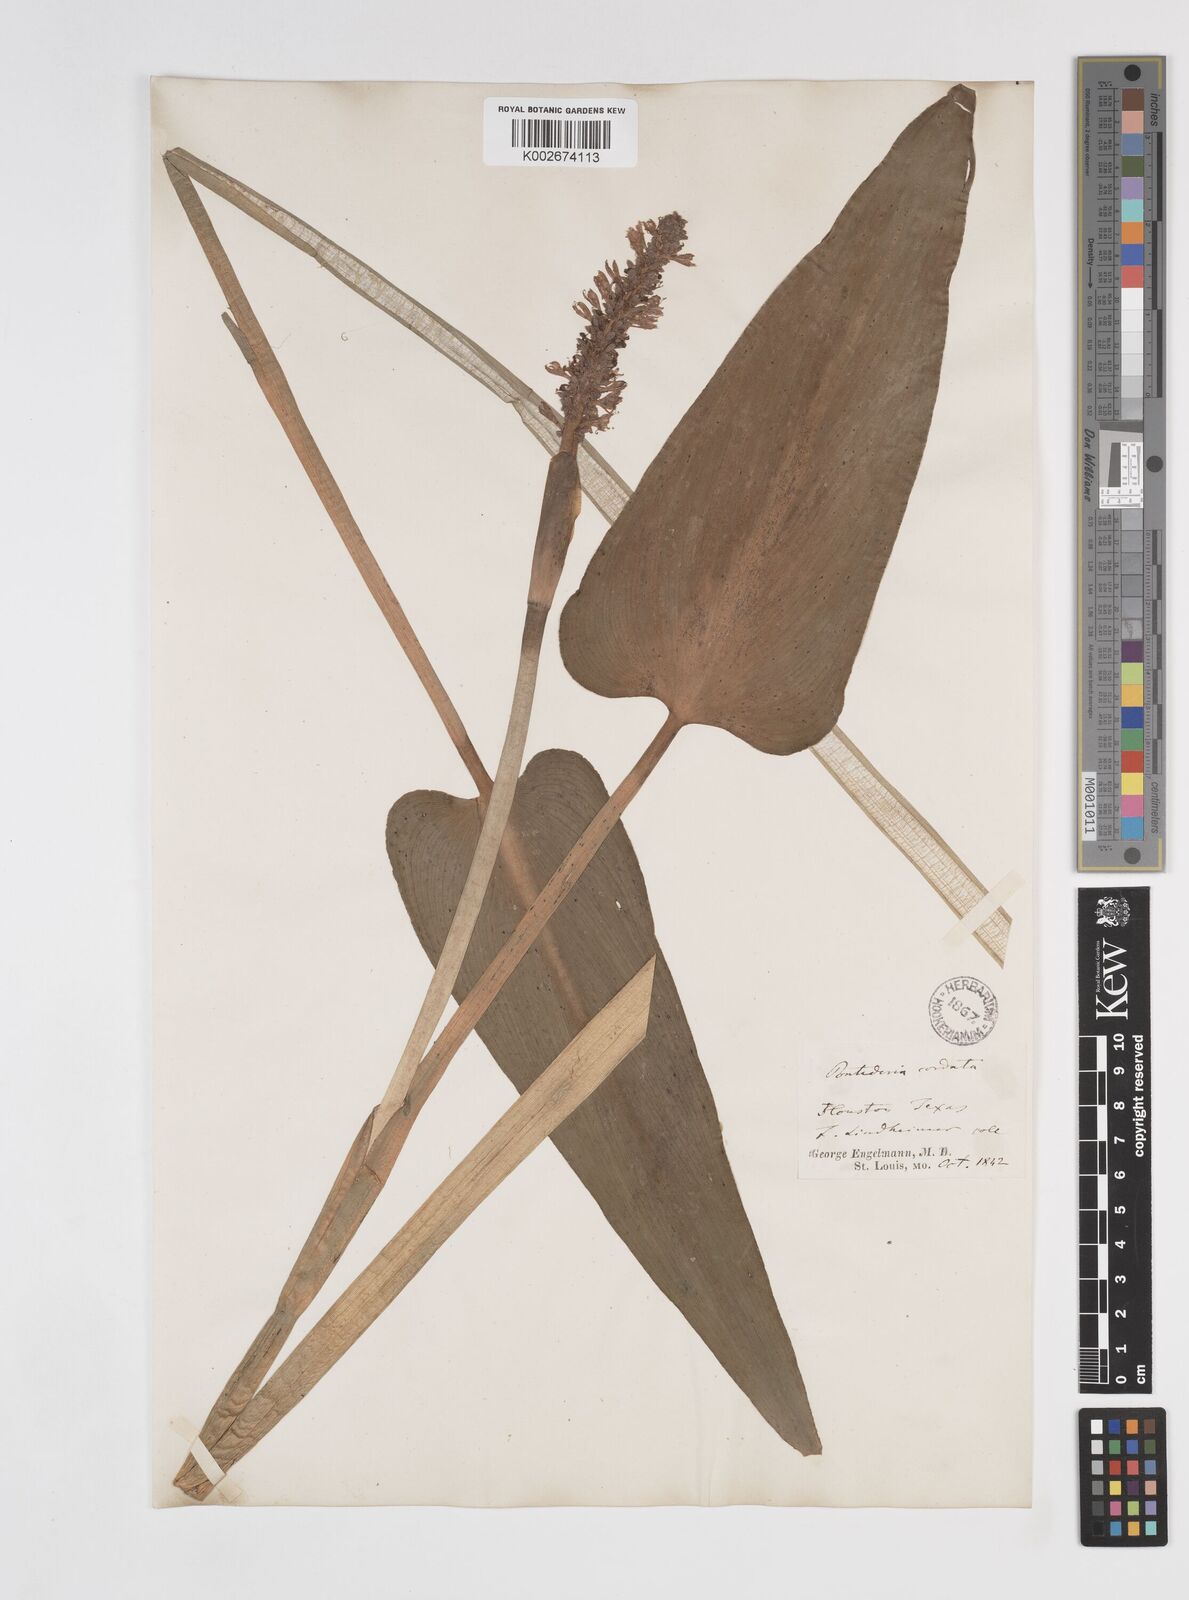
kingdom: Plantae
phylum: Tracheophyta
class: Liliopsida
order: Commelinales
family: Pontederiaceae
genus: Pontederia
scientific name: Pontederia cordata
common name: Pickerelweed
